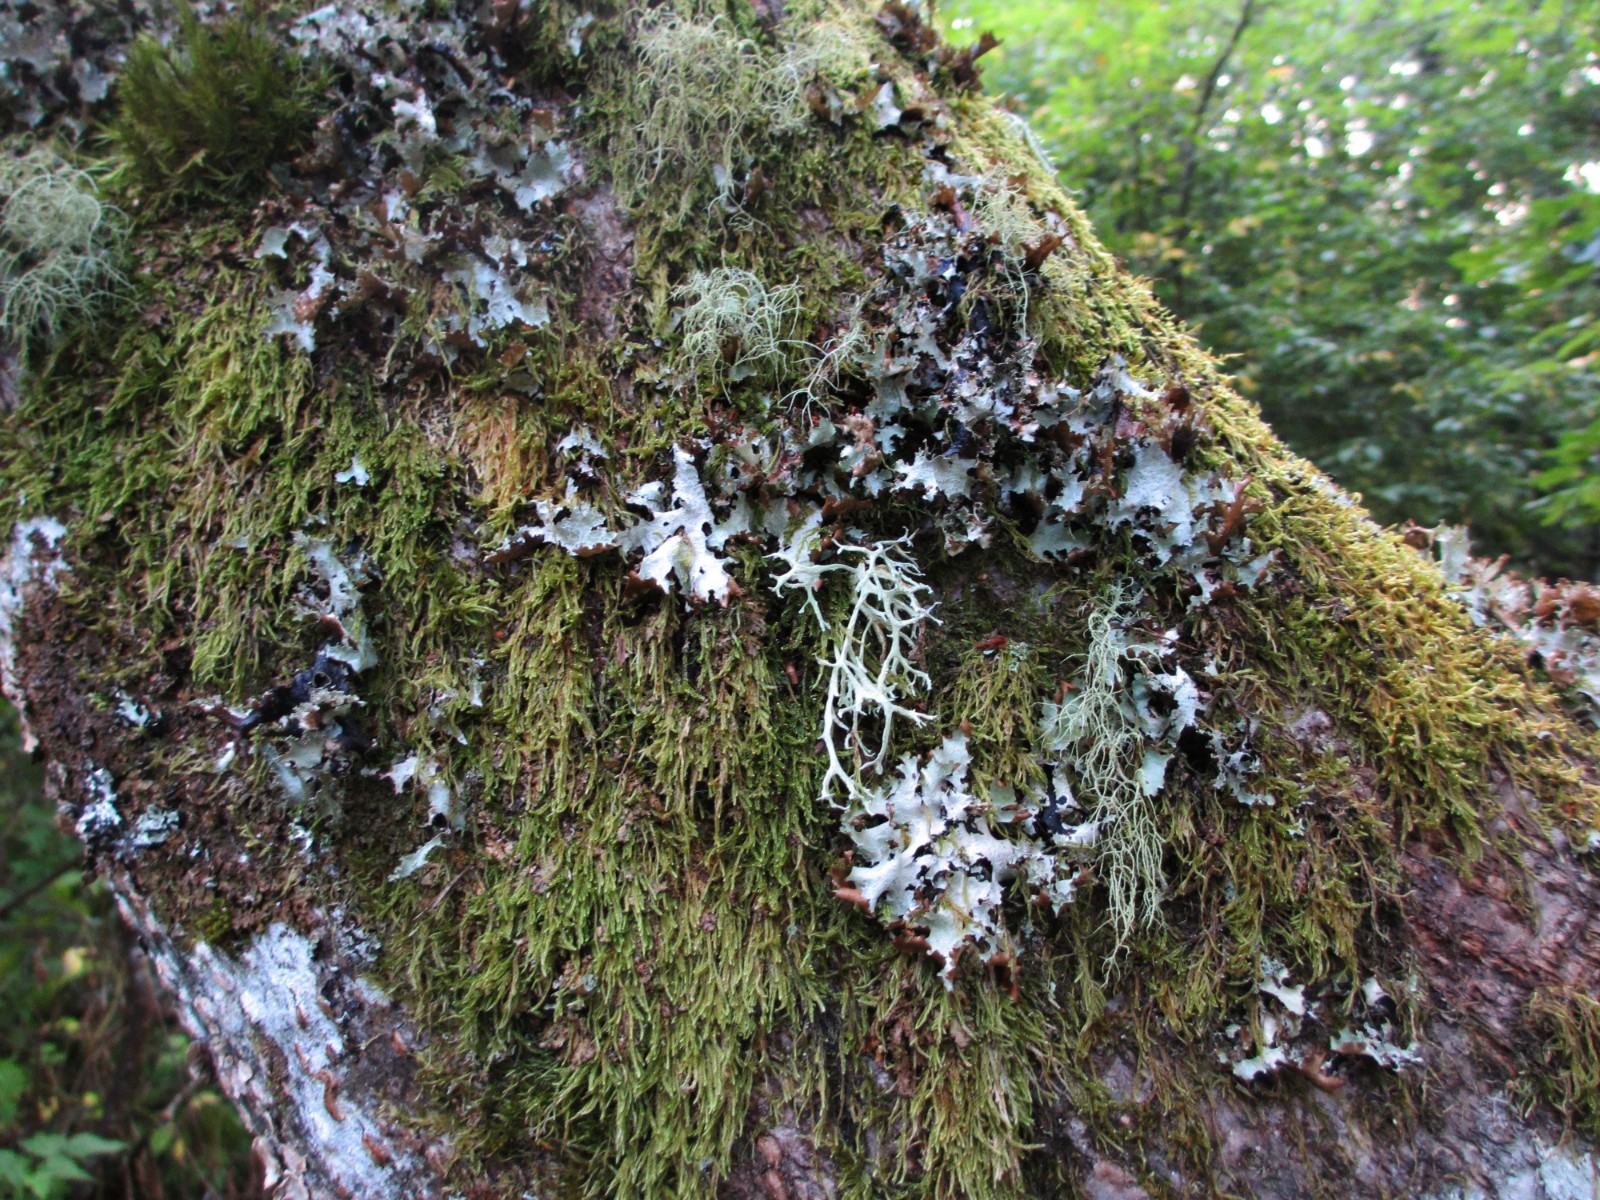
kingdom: Fungi
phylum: Ascomycota
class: Lecanoromycetes
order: Lecanorales
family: Parmeliaceae
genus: Platismatia
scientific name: Platismatia glauca
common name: blågrå papirlav
